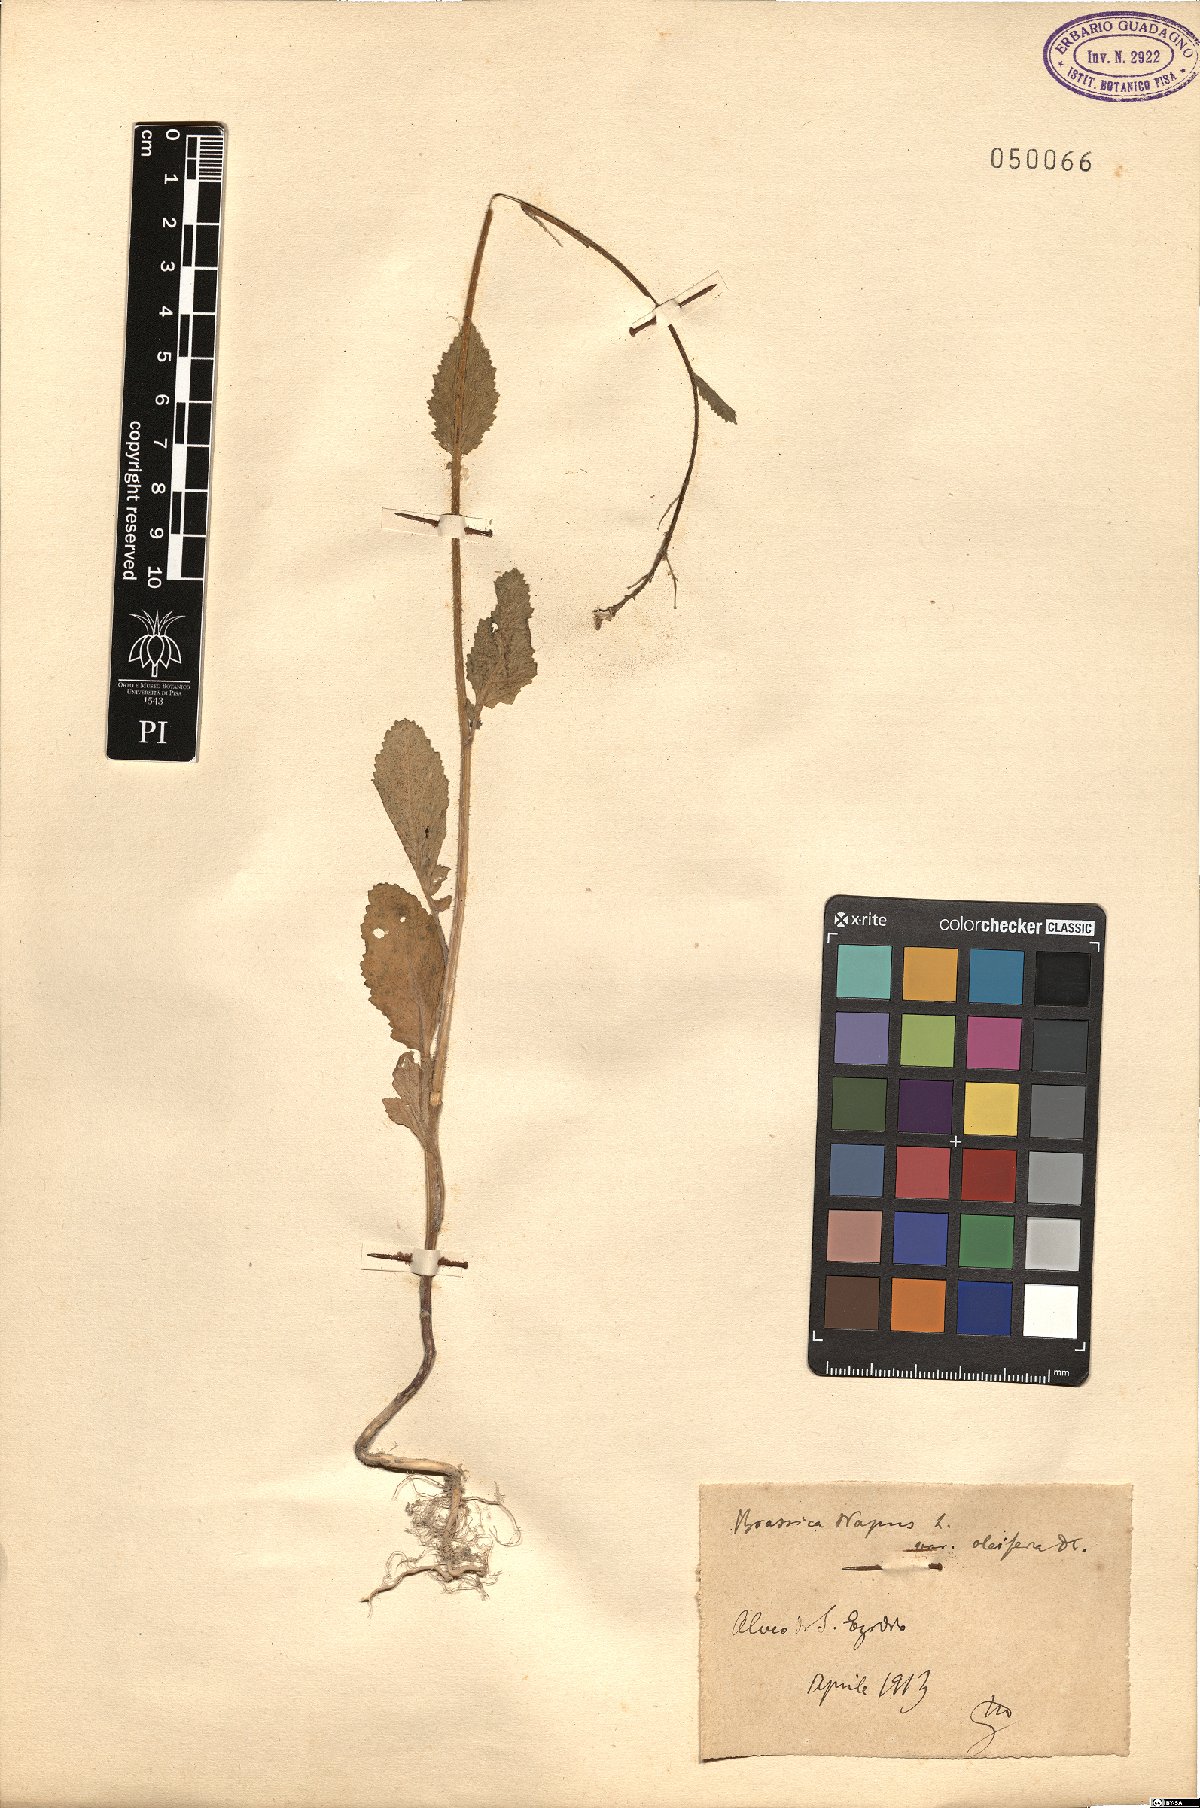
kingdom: Plantae
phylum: Tracheophyta
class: Magnoliopsida
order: Brassicales
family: Brassicaceae
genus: Brassica
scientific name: Brassica napus
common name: Rape
